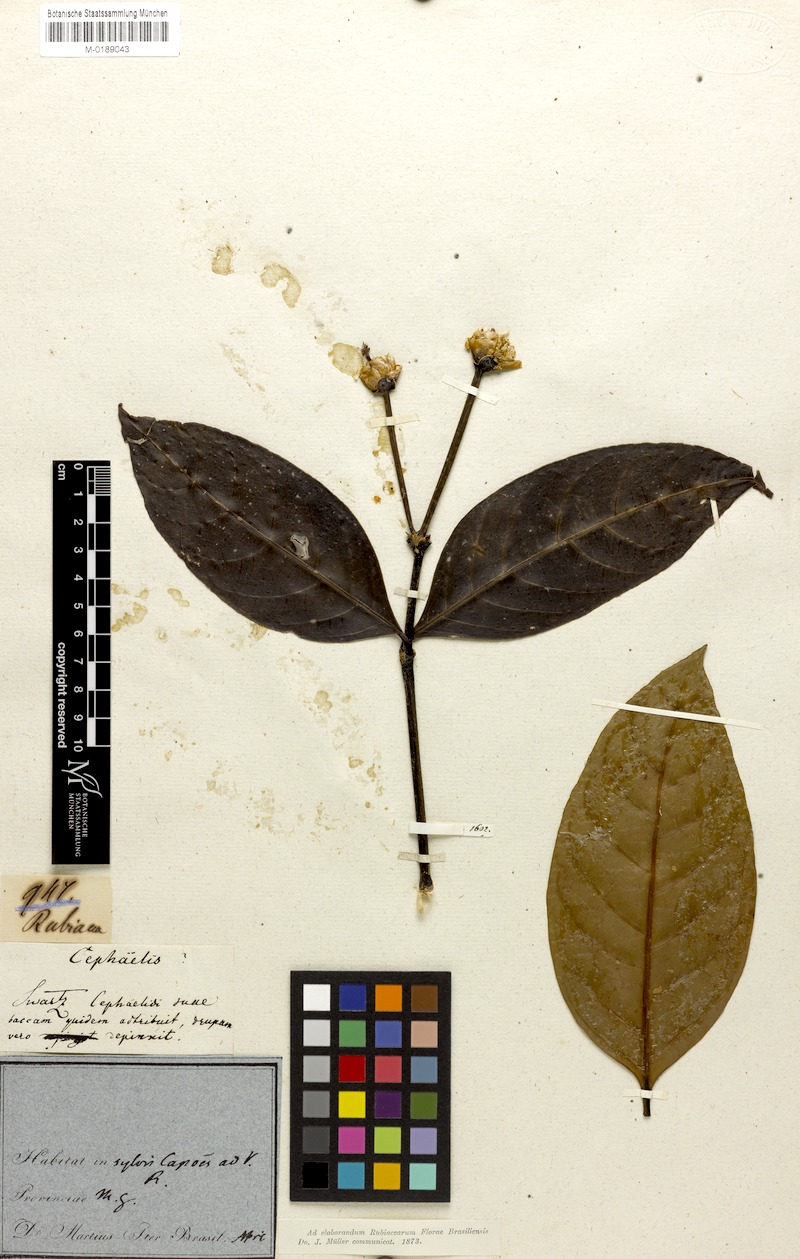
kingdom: Plantae
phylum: Tracheophyta
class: Magnoliopsida
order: Gentianales
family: Rubiaceae
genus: Psychotria
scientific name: Psychotria hastisepala
